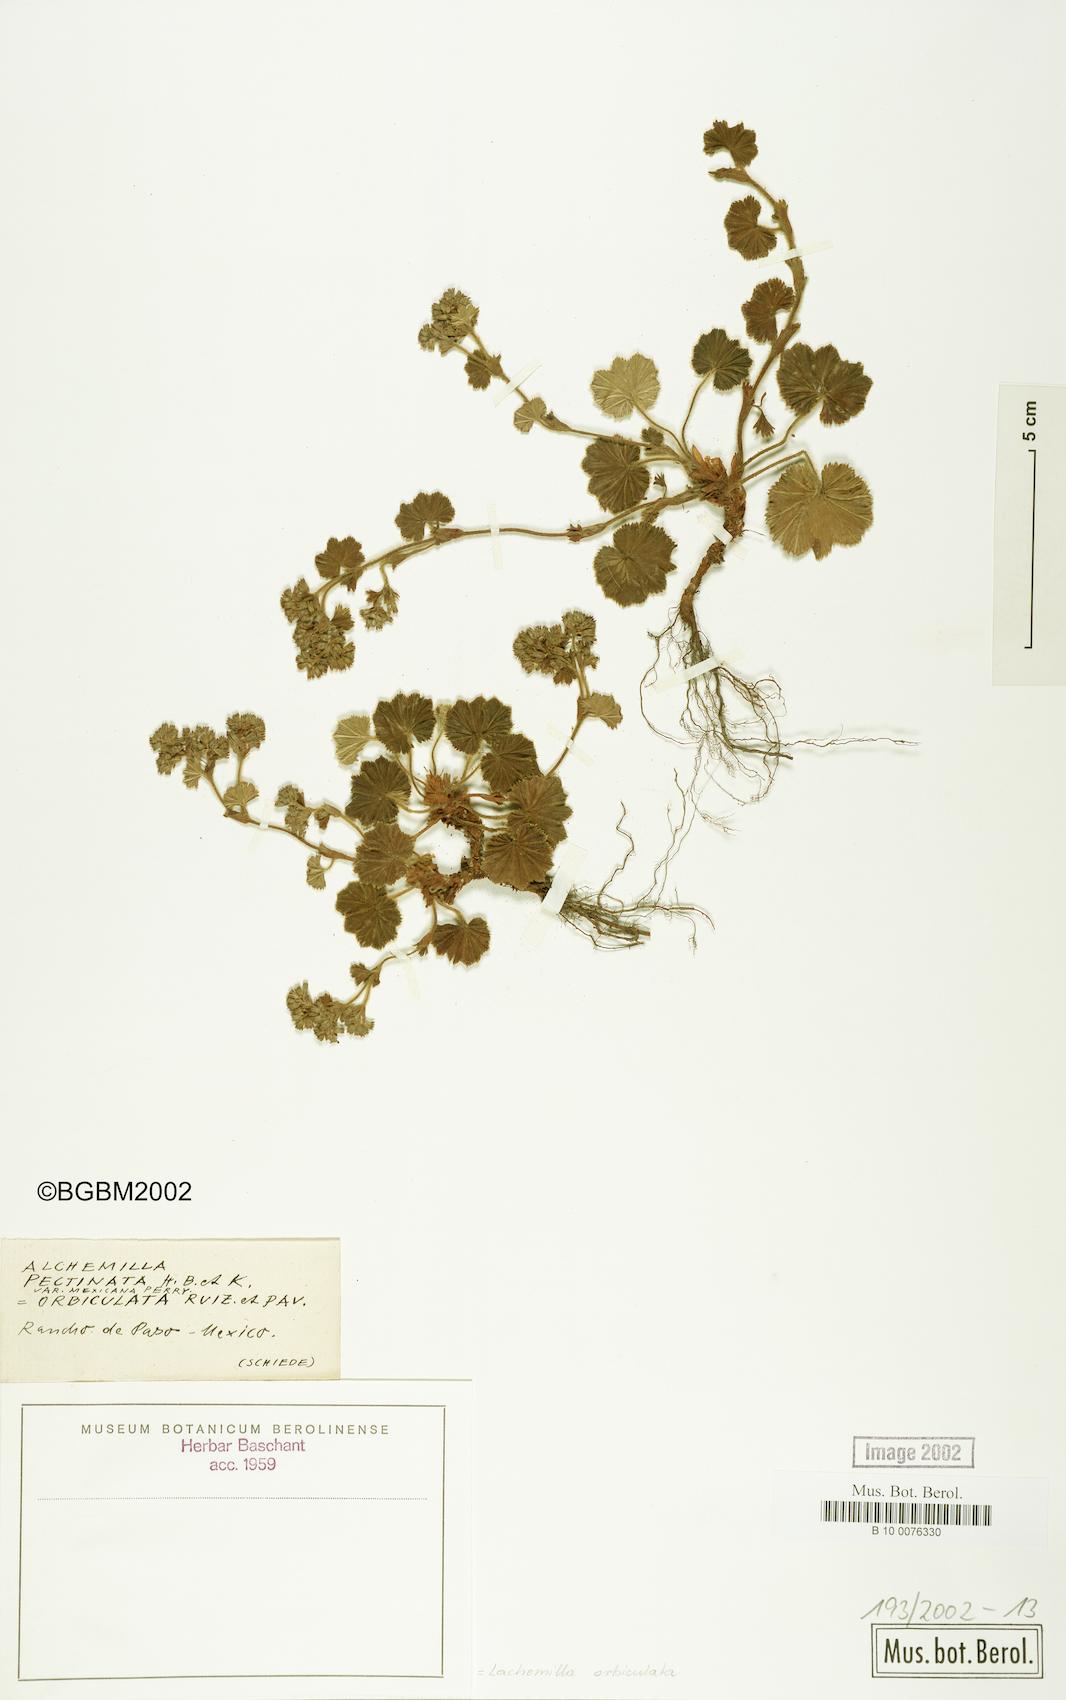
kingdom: Plantae
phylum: Tracheophyta
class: Magnoliopsida
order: Rosales
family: Rosaceae
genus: Lachemilla
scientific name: Lachemilla orbiculata
